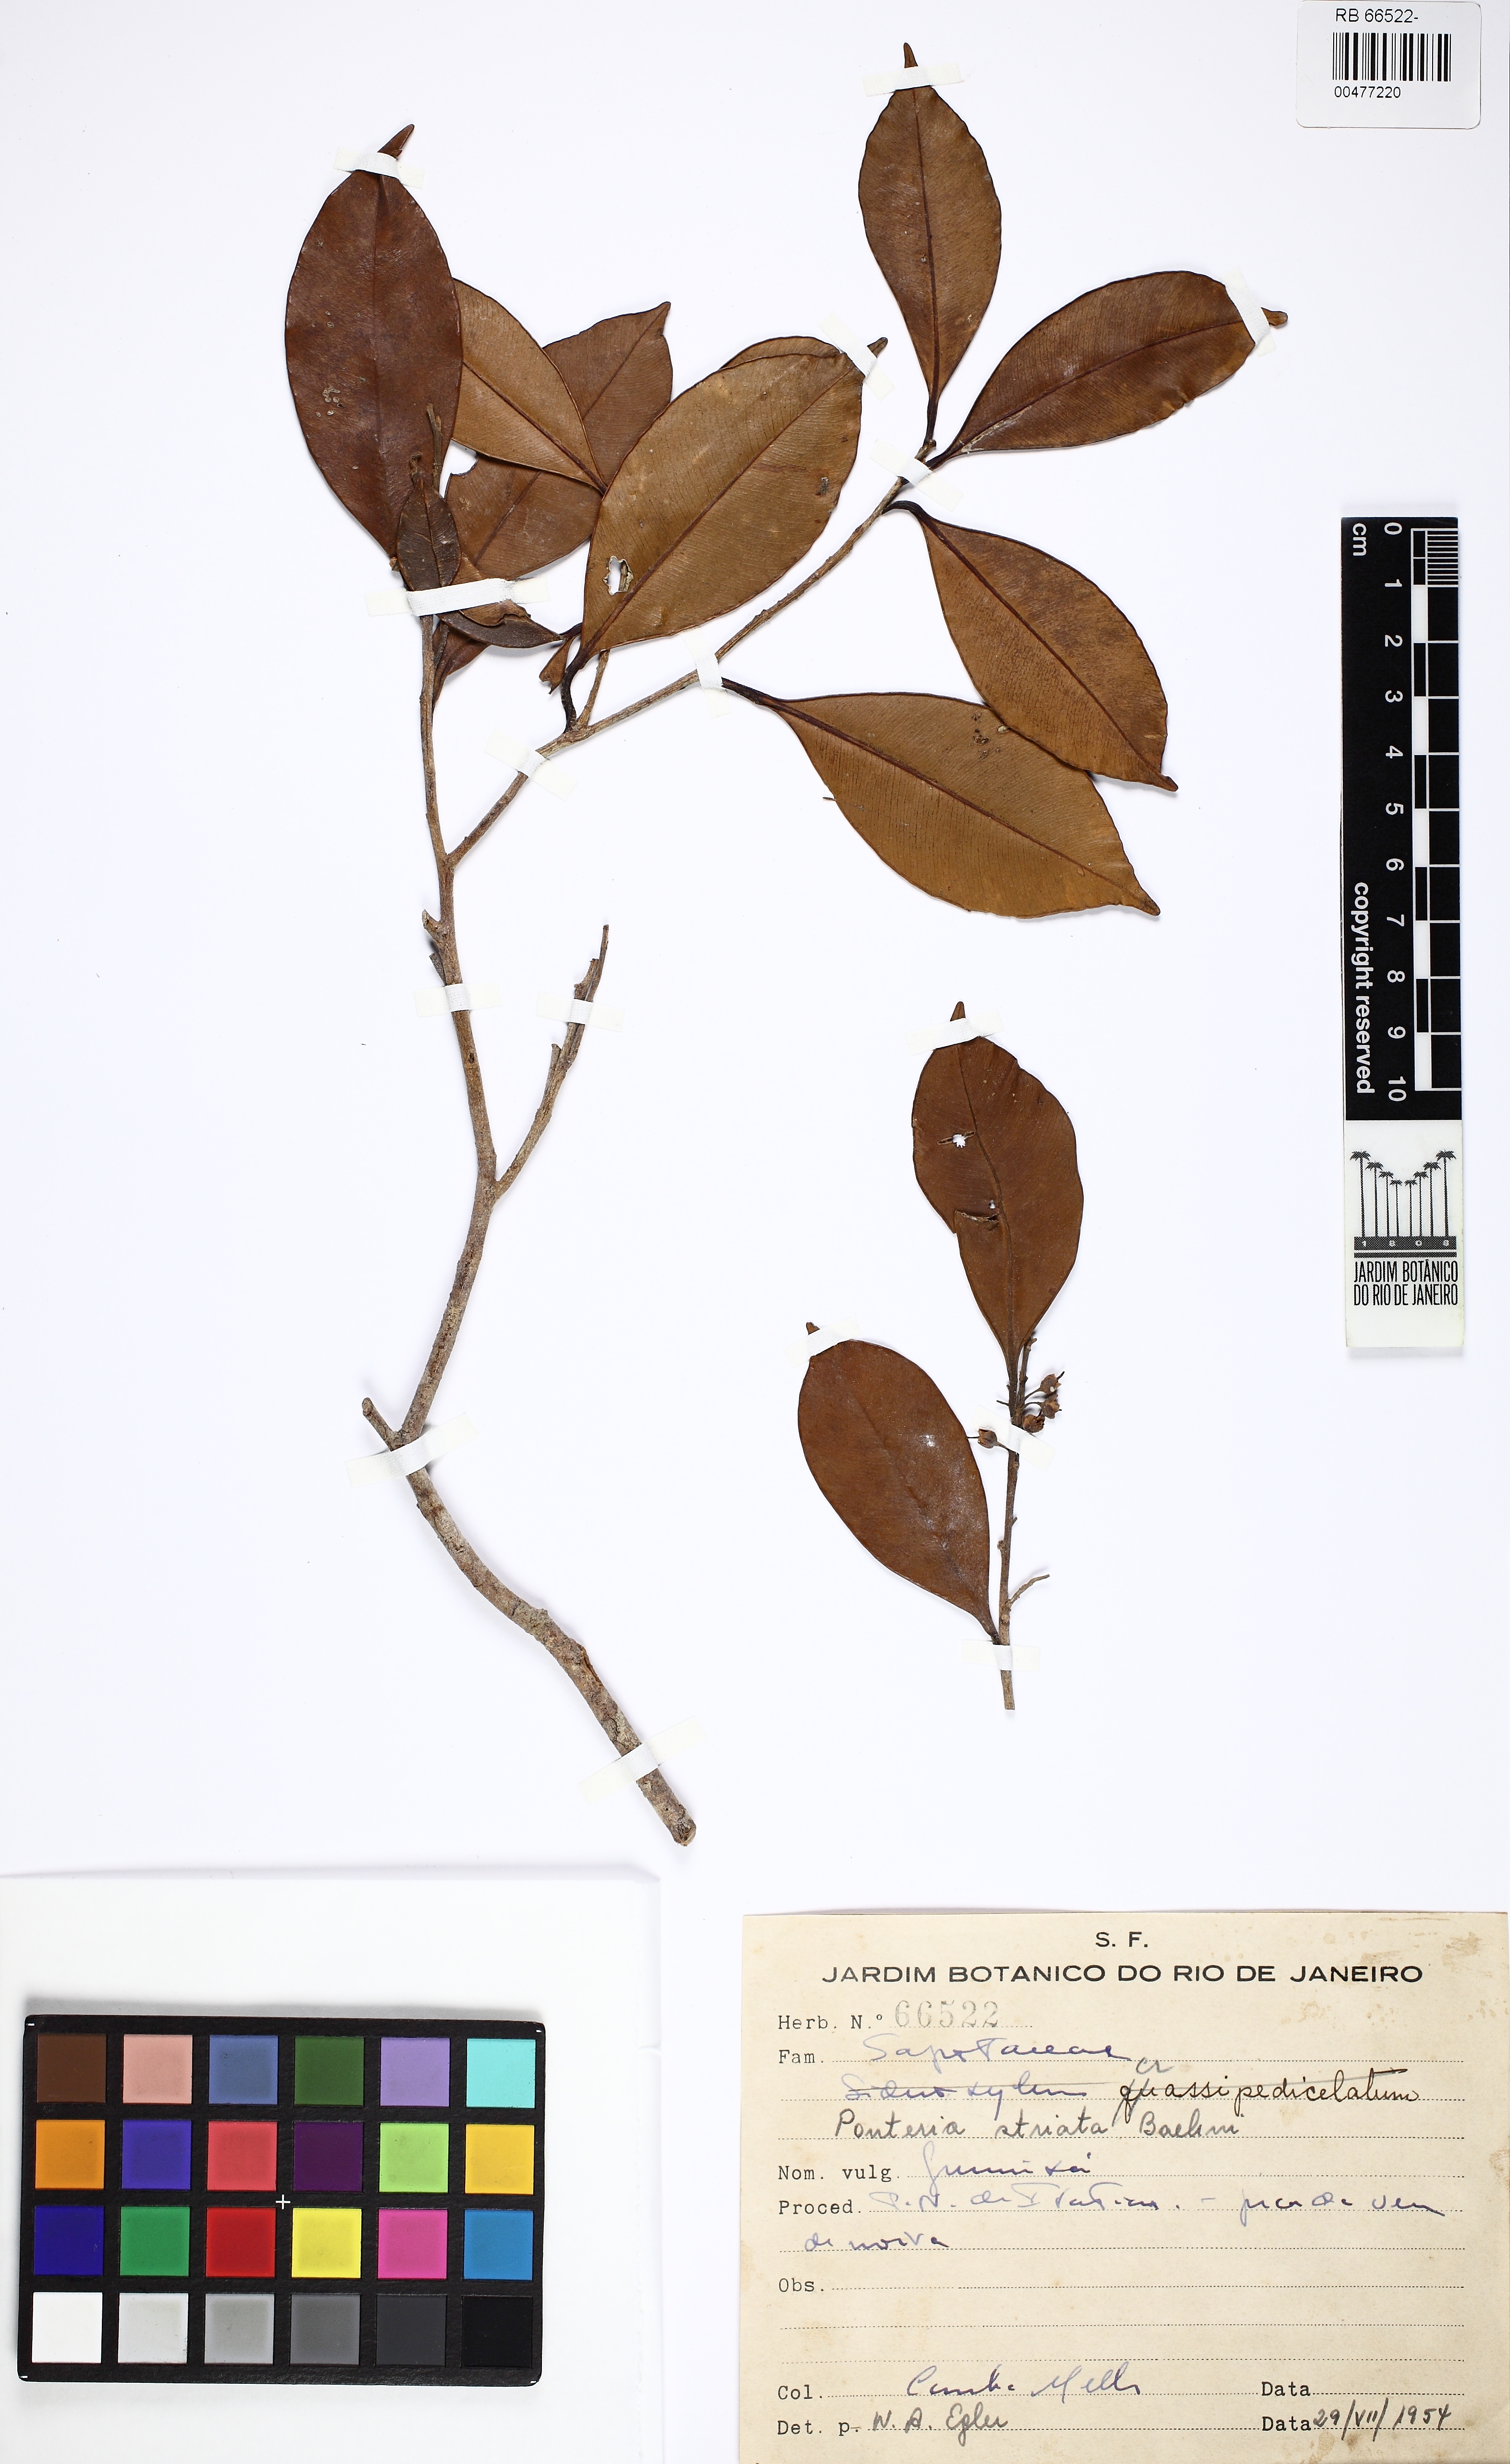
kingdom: Plantae
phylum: Tracheophyta
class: Magnoliopsida
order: Ericales
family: Sapotaceae
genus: Micropholis
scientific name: Micropholis crassipedicellata
